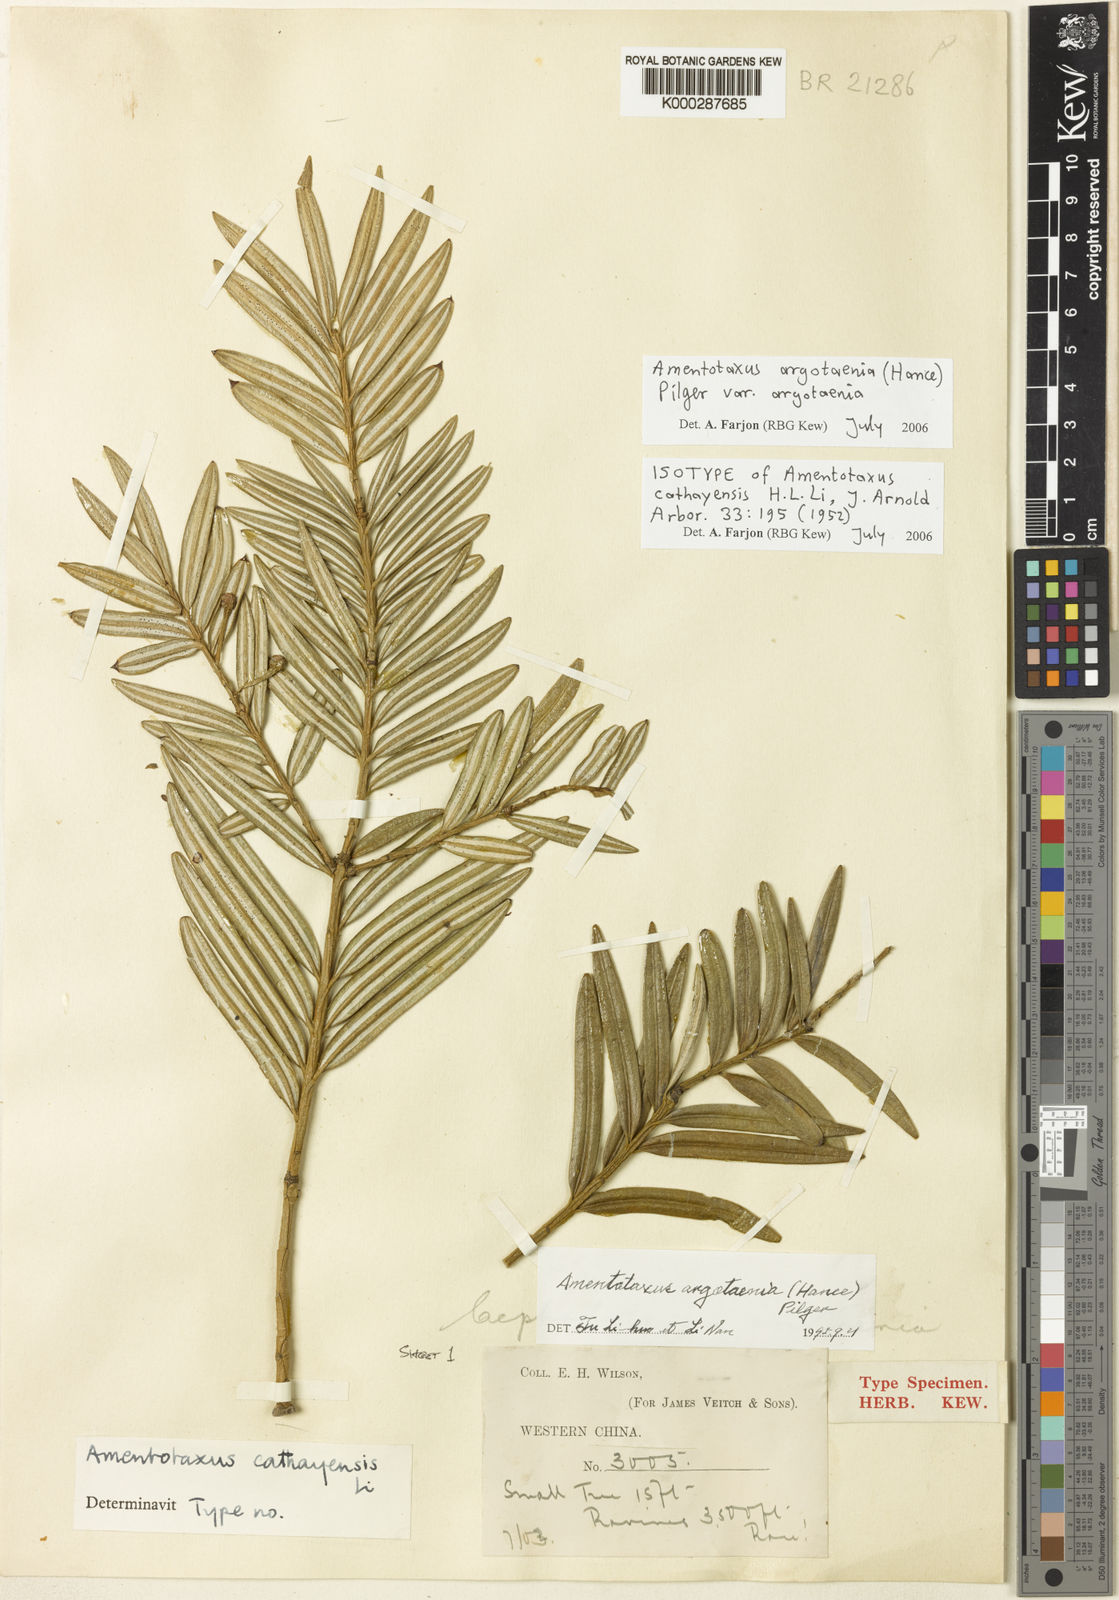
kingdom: Plantae
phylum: Tracheophyta
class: Pinopsida
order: Pinales
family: Taxaceae
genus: Amentotaxus
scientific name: Amentotaxus argotaenia
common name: Catkin yew
